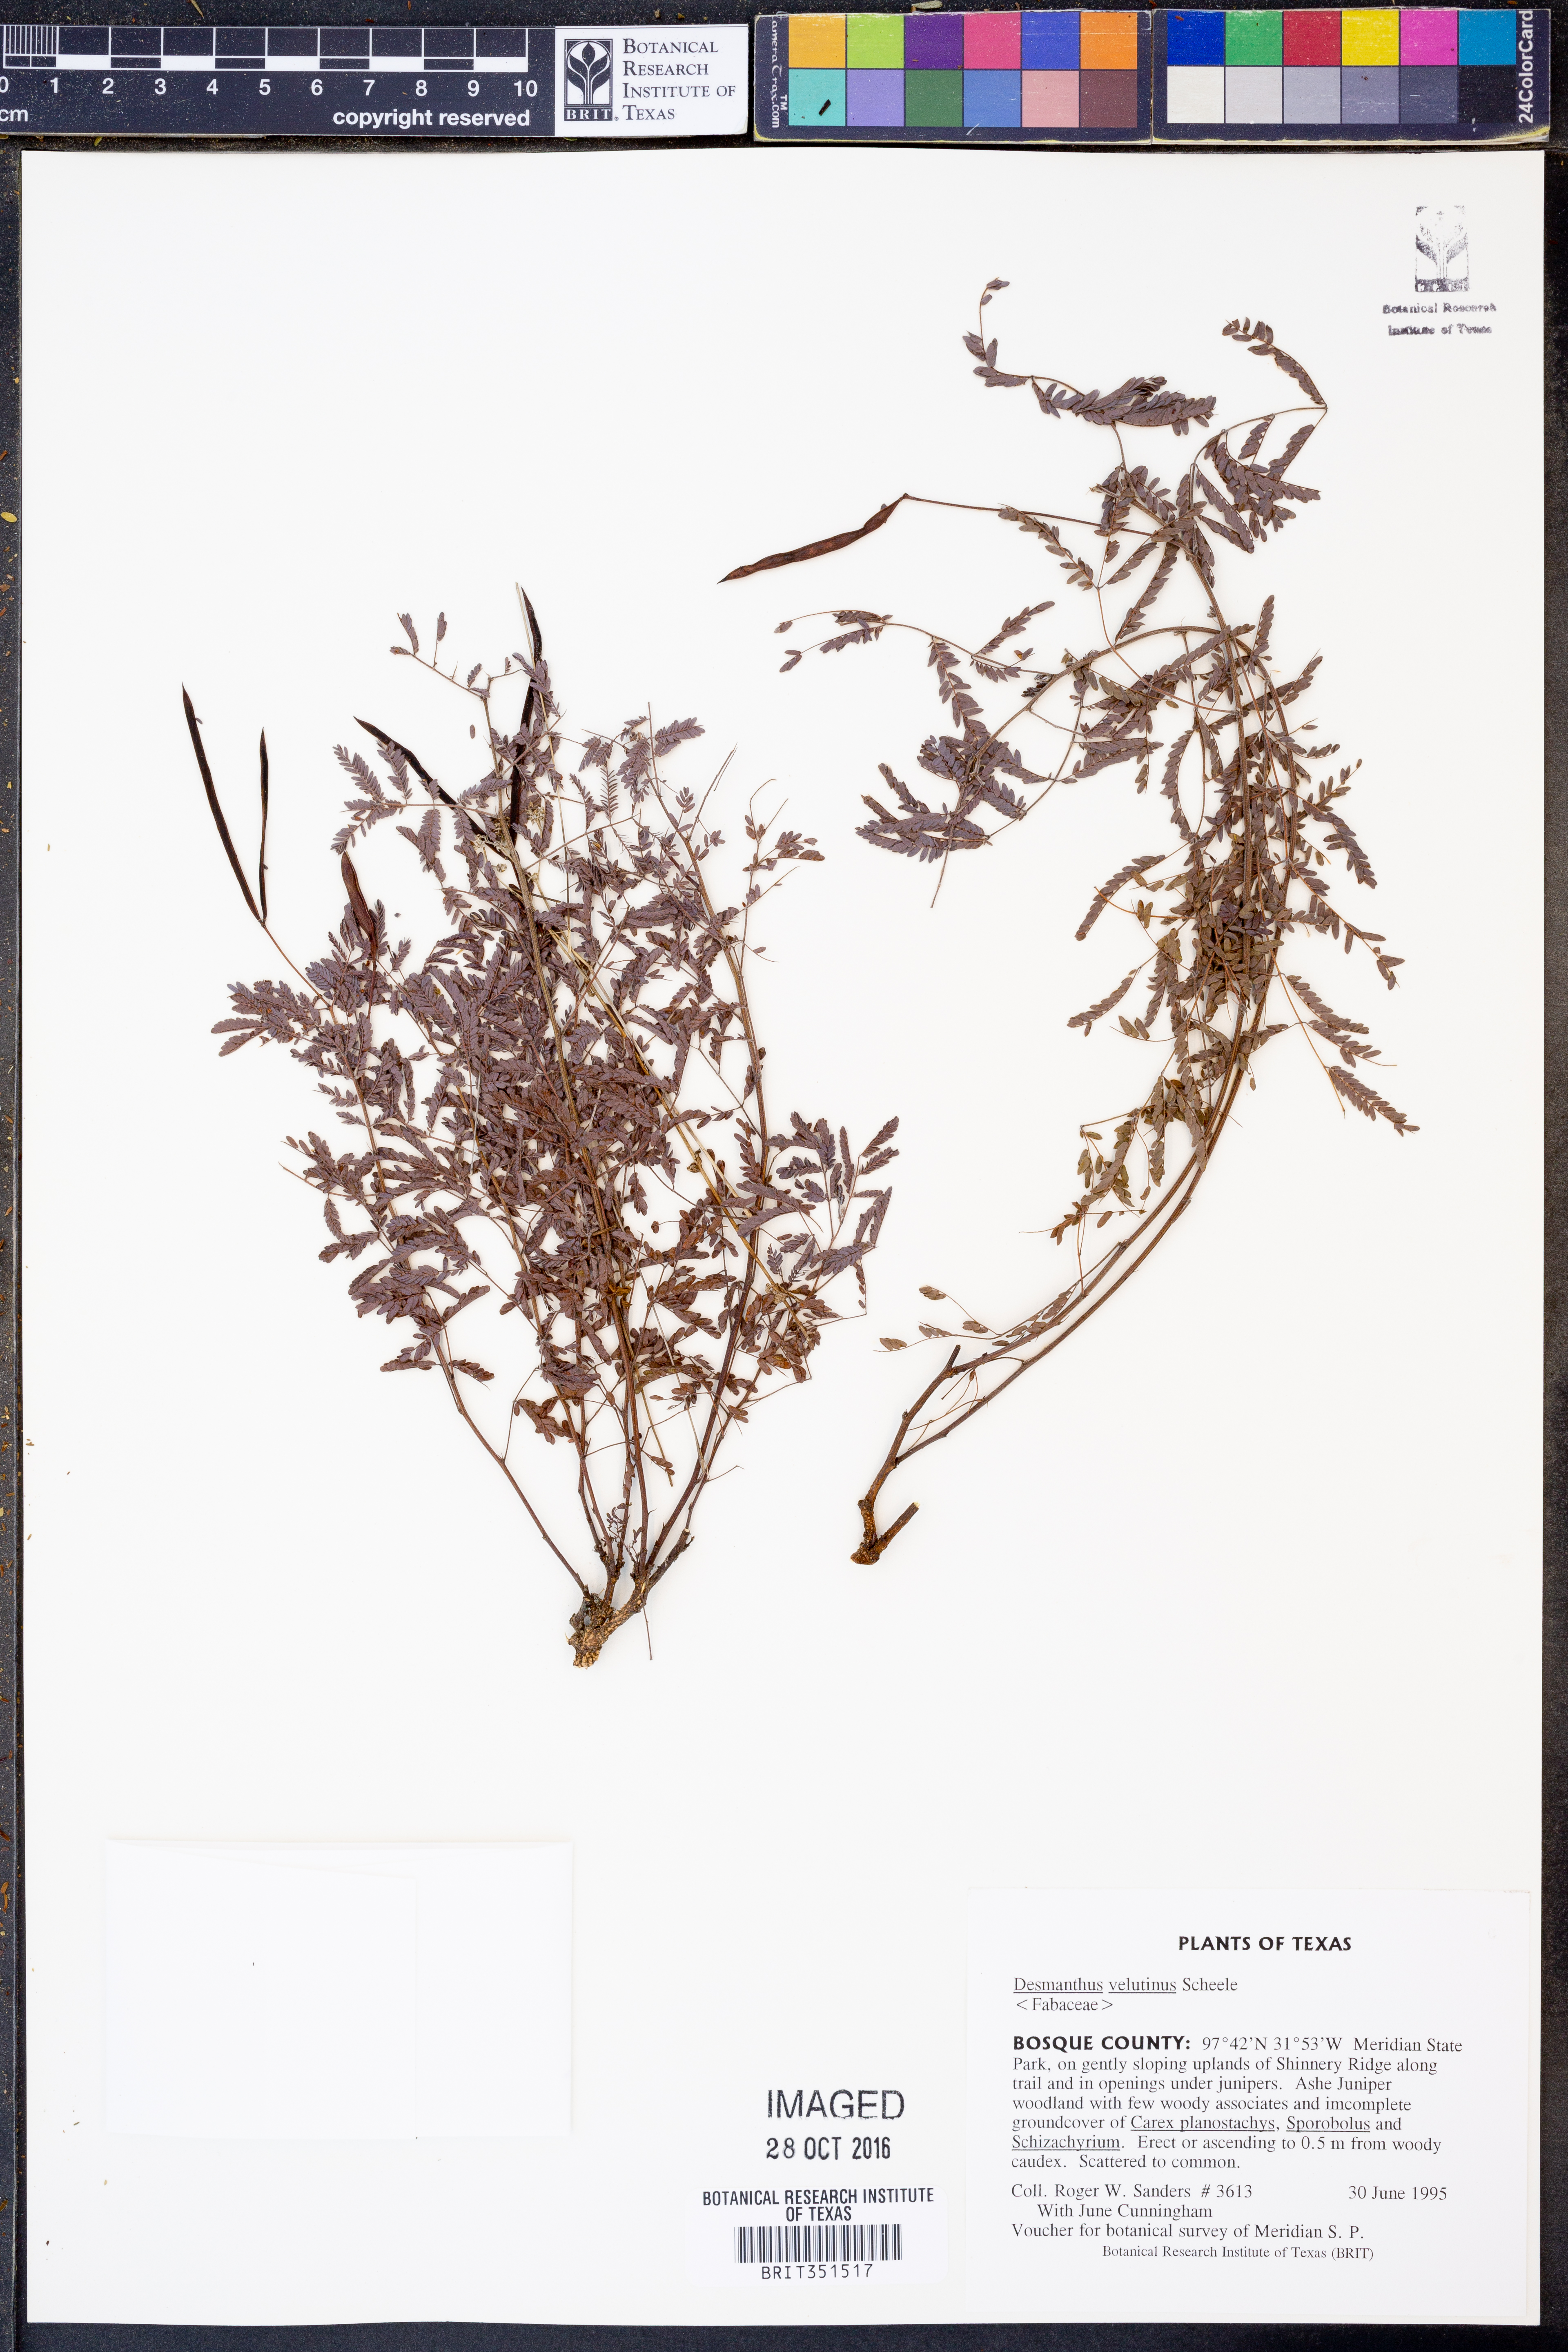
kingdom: Plantae
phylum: Tracheophyta
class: Magnoliopsida
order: Fabales
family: Fabaceae
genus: Desmanthus
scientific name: Desmanthus velutinus
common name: Velvet bundle-flower
